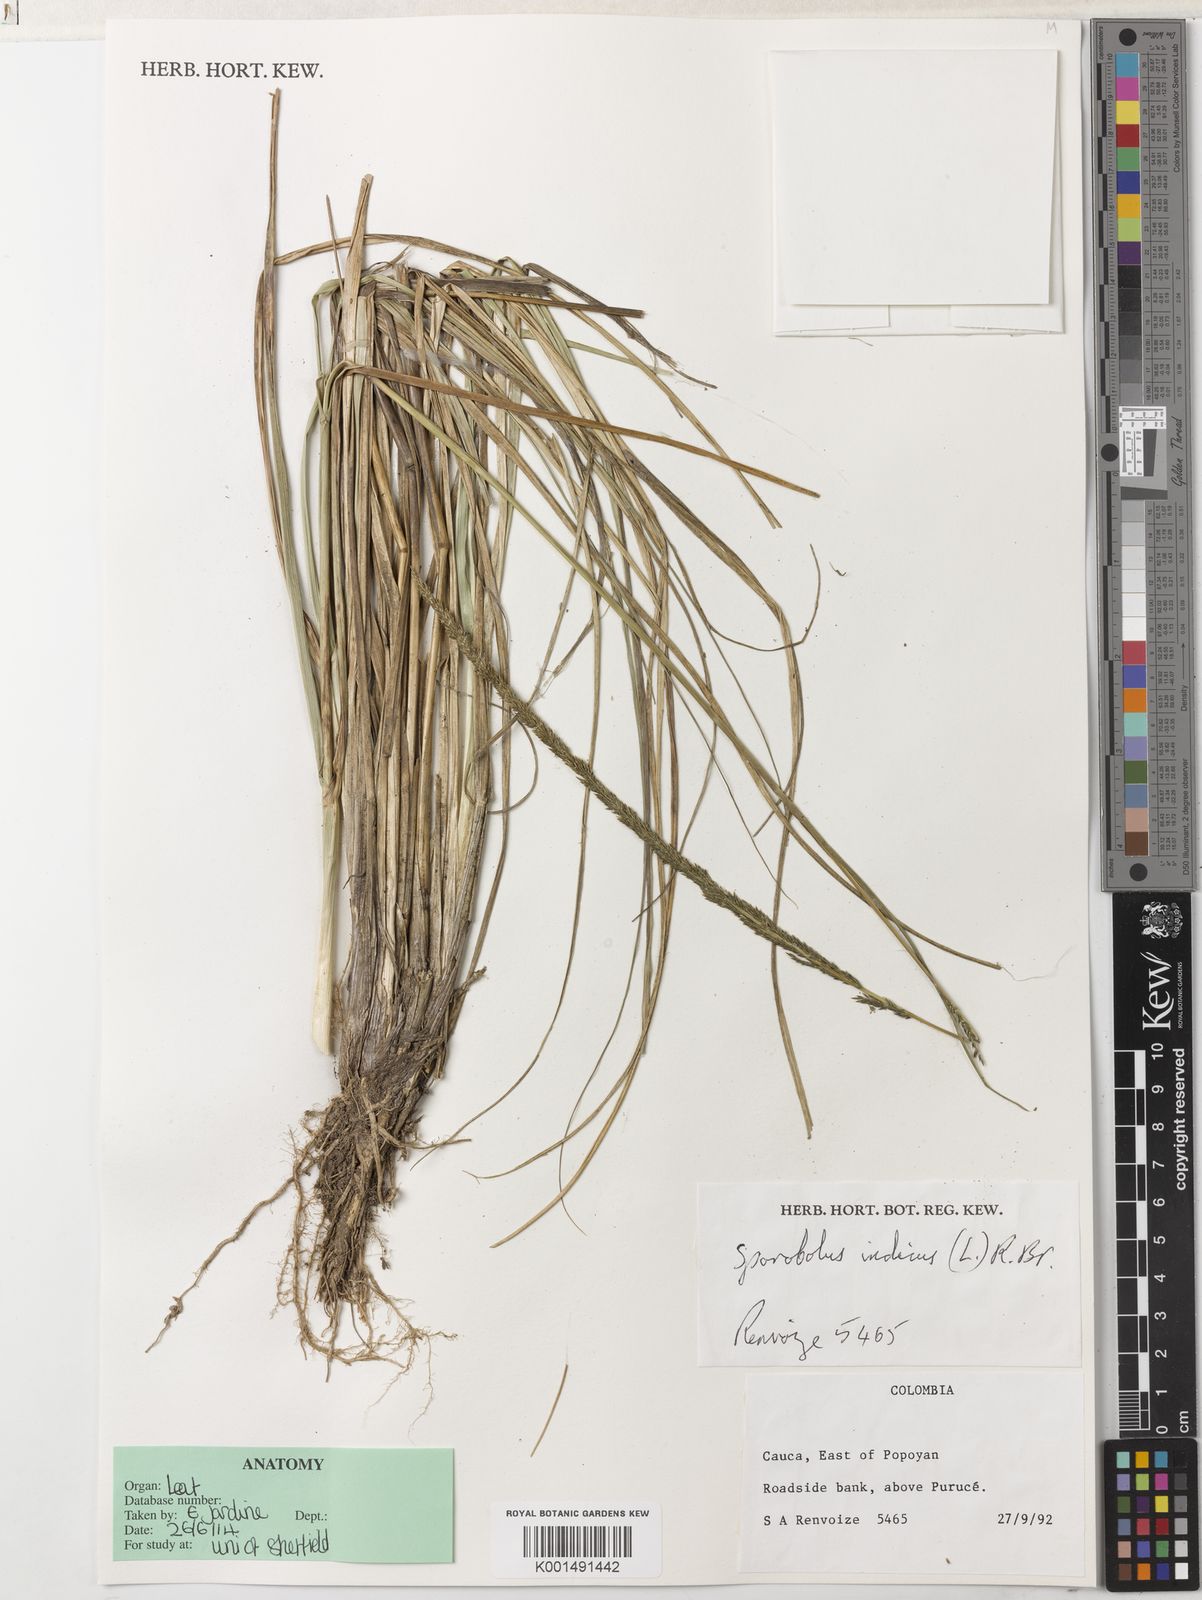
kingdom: Plantae
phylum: Tracheophyta
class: Liliopsida
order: Poales
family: Poaceae
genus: Sporobolus
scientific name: Sporobolus indicus
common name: Smut grass
